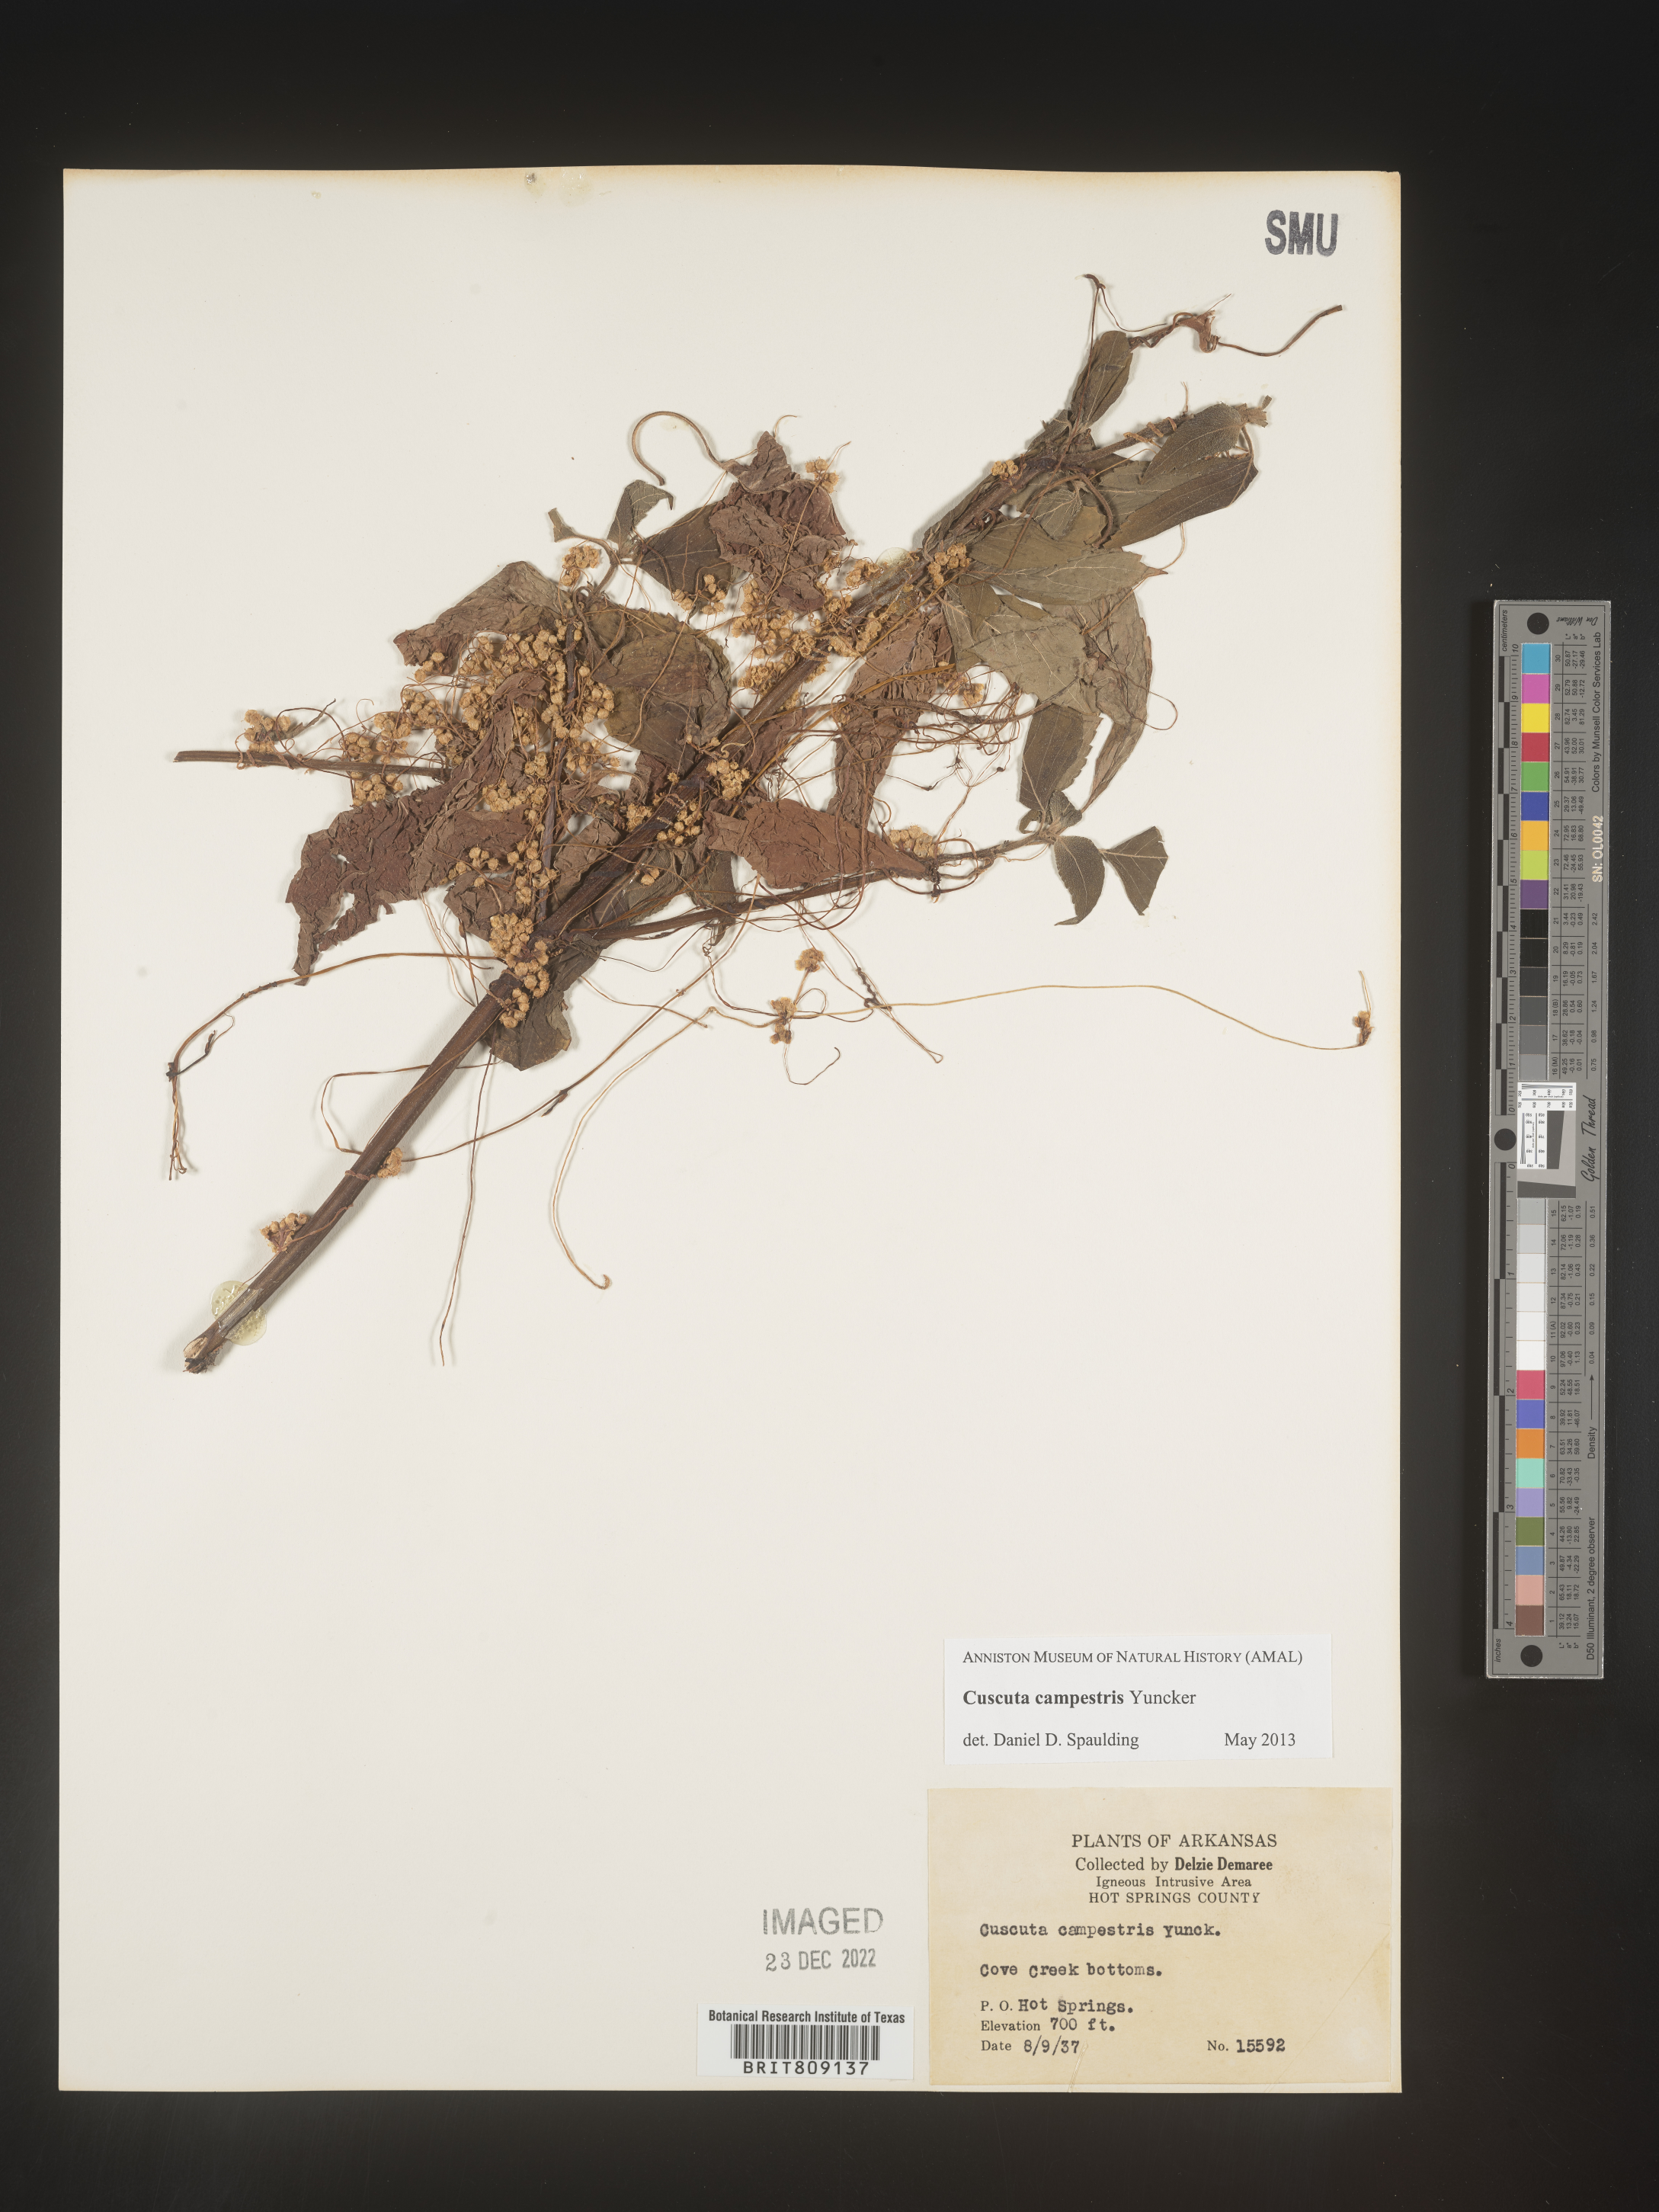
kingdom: Plantae
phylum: Tracheophyta
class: Magnoliopsida
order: Solanales
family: Convolvulaceae
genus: Cuscuta
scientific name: Cuscuta campestris
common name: Yellow dodder
